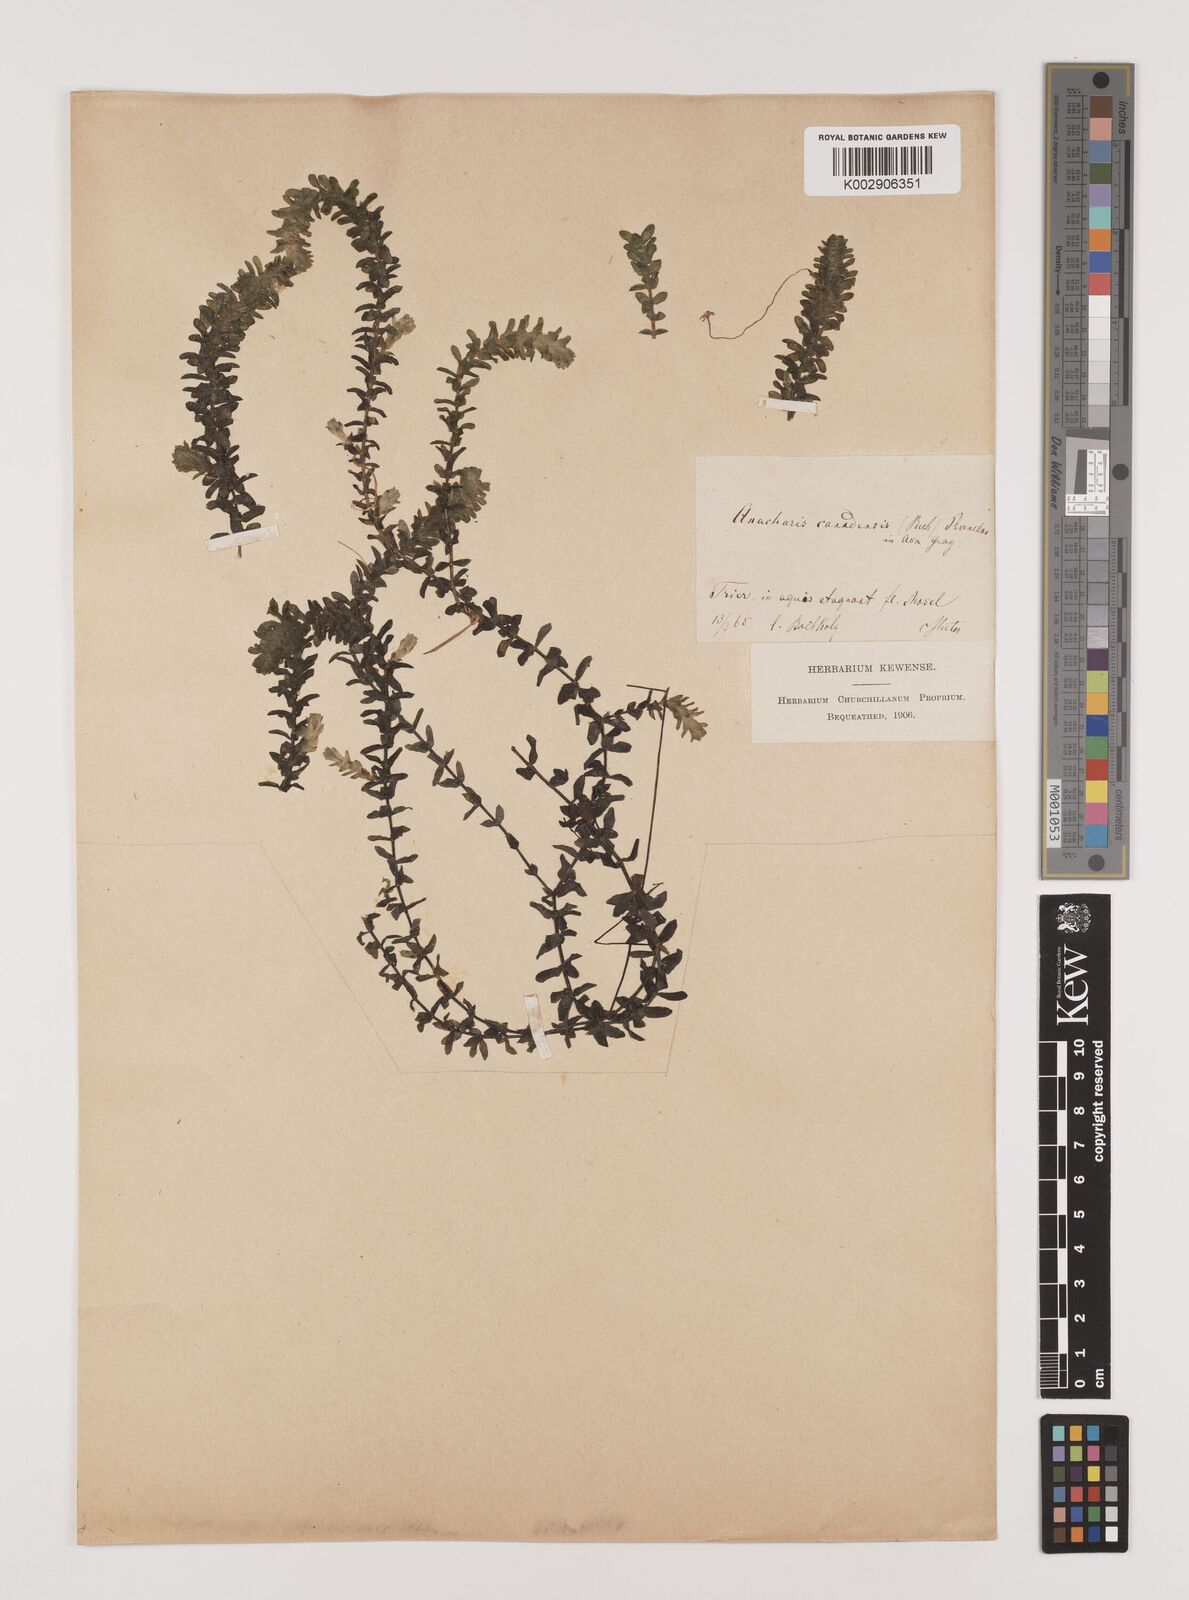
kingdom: Plantae
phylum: Tracheophyta
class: Liliopsida
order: Alismatales
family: Hydrocharitaceae
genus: Elodea
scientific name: Elodea canadensis
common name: Canadian waterweed
